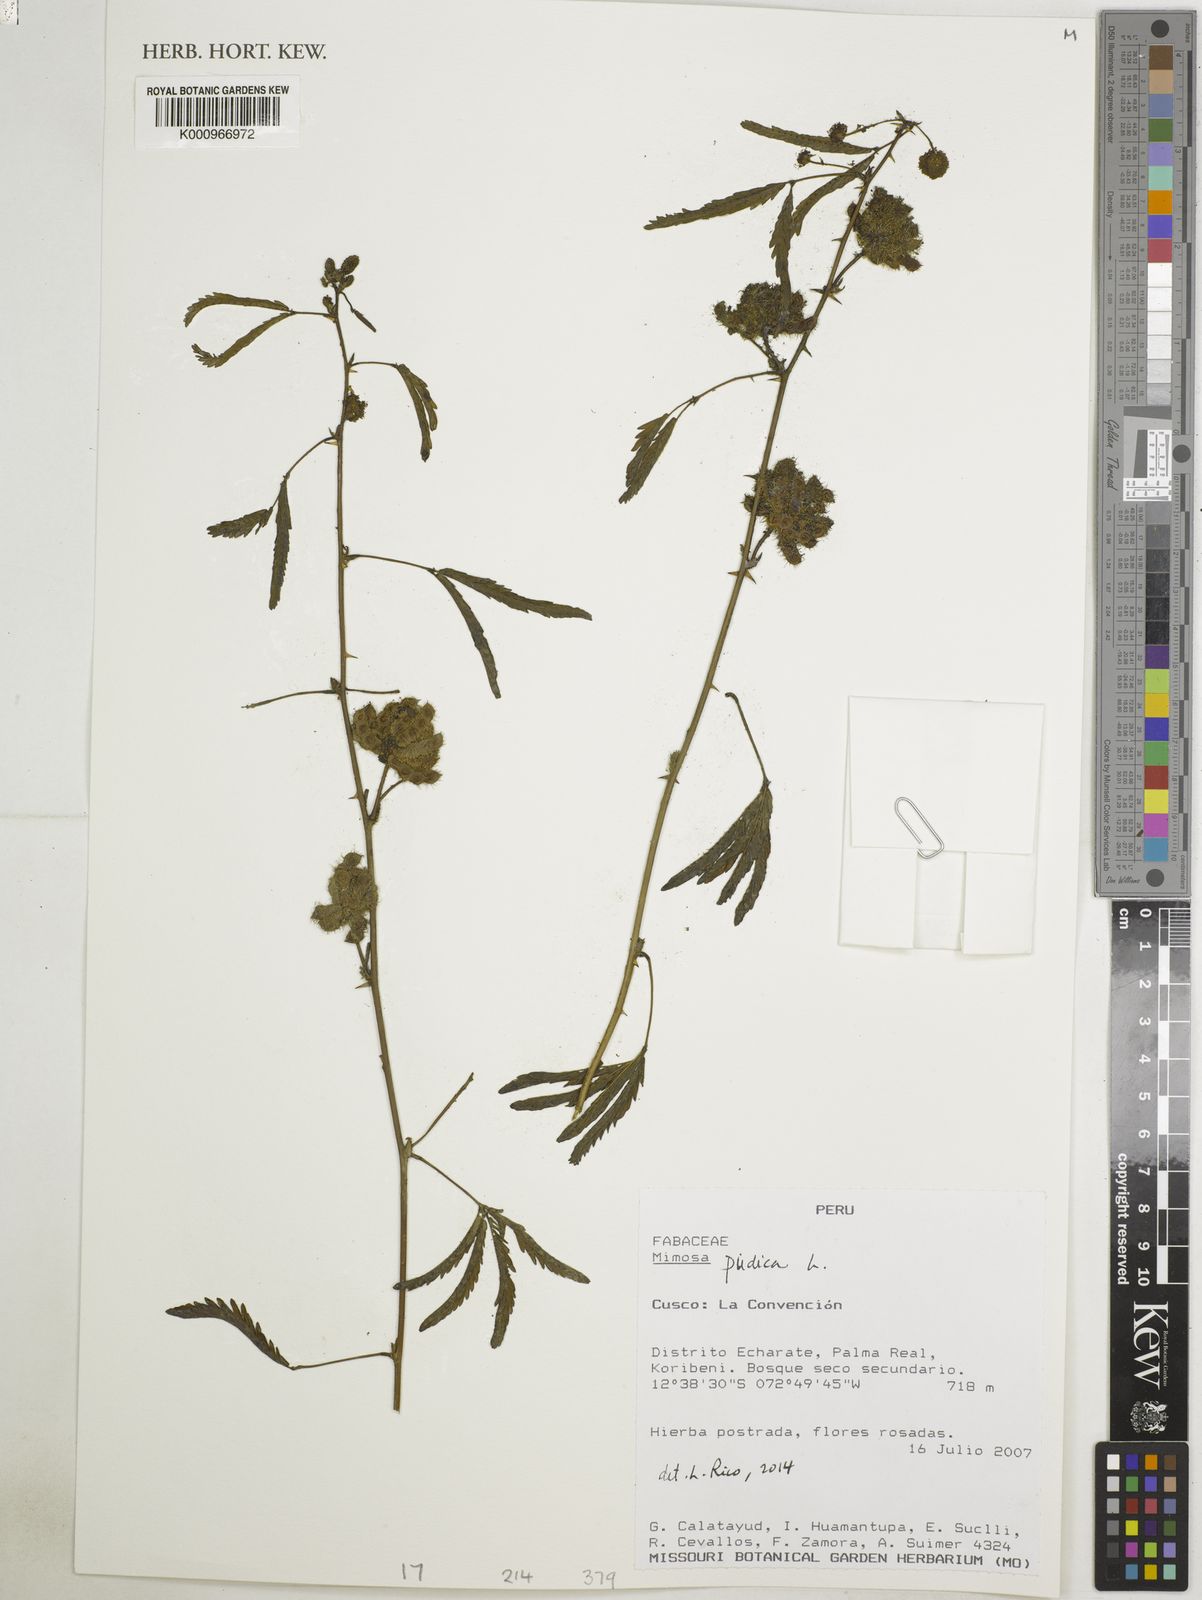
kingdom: Plantae
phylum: Tracheophyta
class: Magnoliopsida
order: Fabales
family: Fabaceae
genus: Mimosa
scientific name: Mimosa pudica
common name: Sensitive plant
